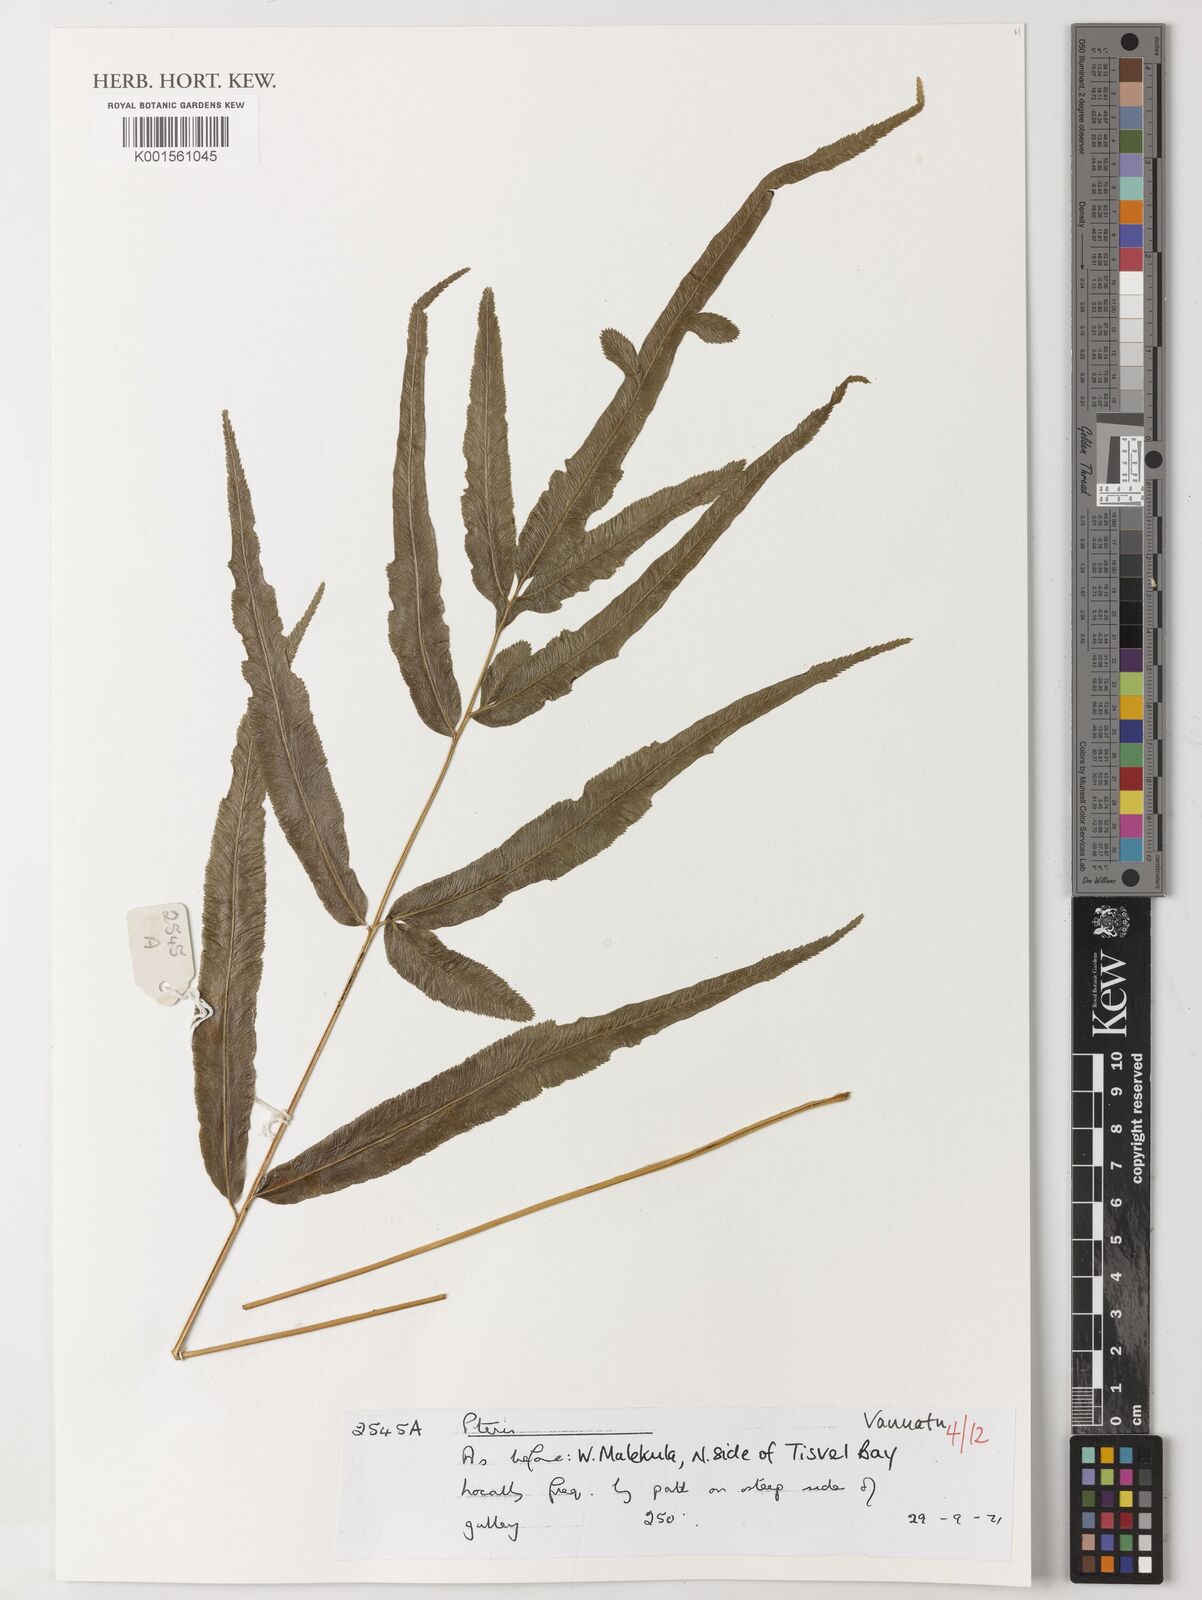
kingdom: Plantae
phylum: Tracheophyta
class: Polypodiopsida
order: Polypodiales
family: Pteridaceae
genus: Pteris
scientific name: Pteris
